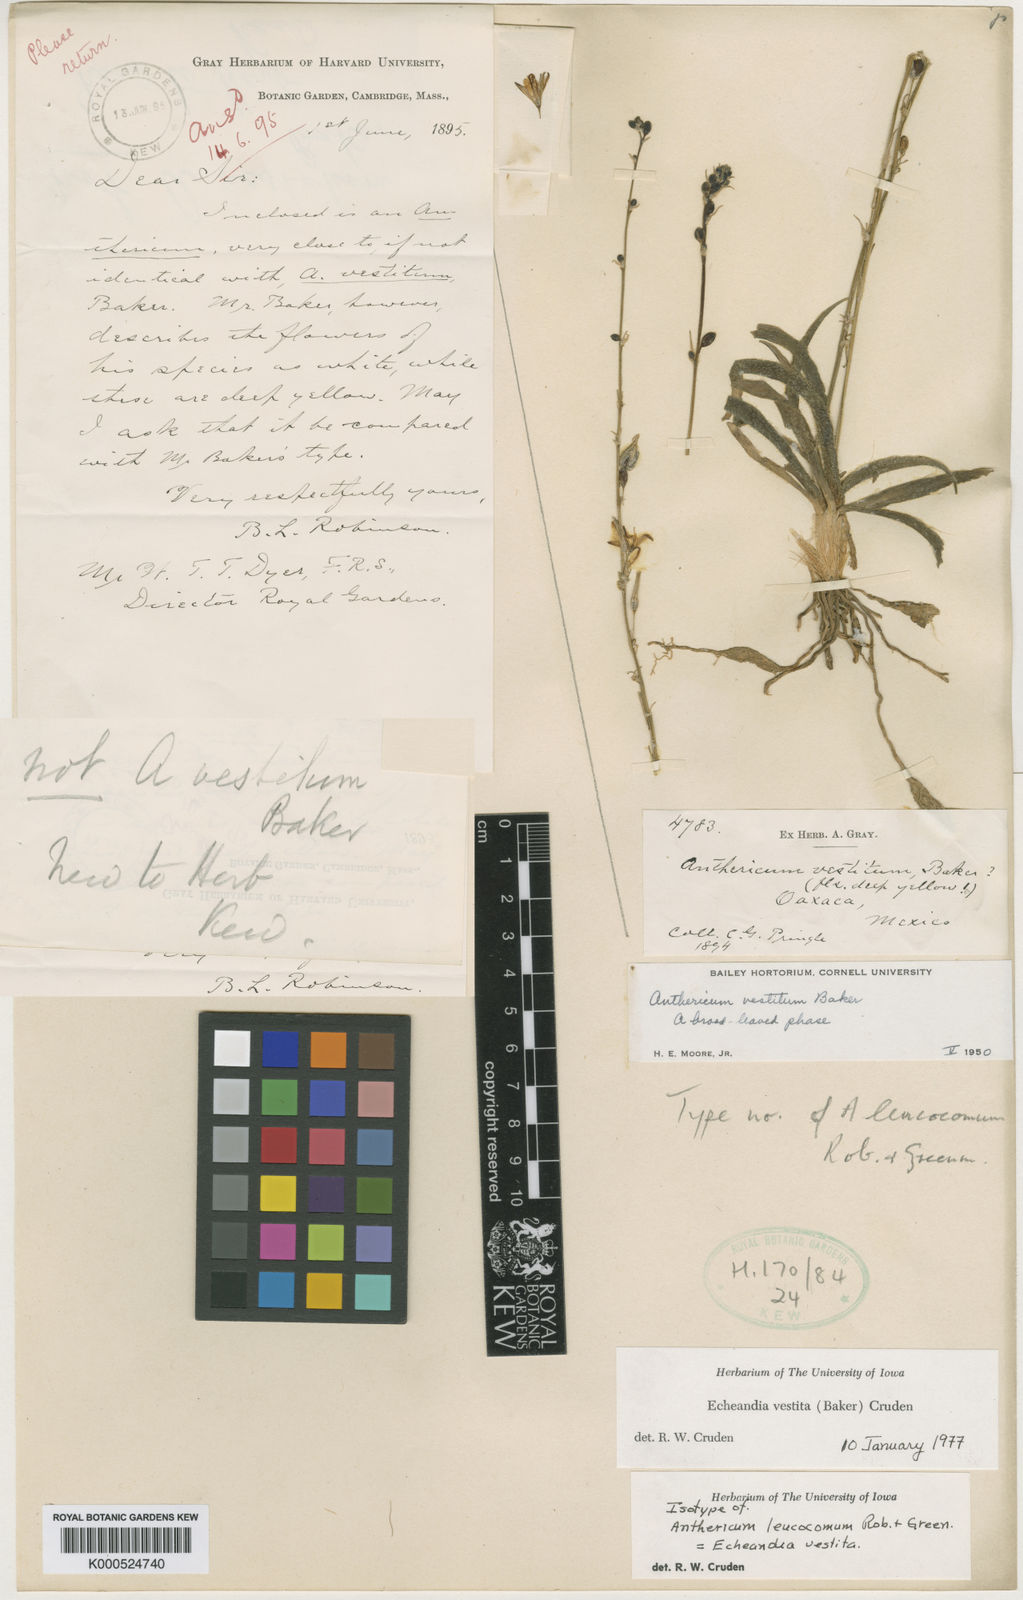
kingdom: Plantae
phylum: Tracheophyta
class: Liliopsida
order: Asparagales
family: Asparagaceae
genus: Echeandia
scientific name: Echeandia vestita
